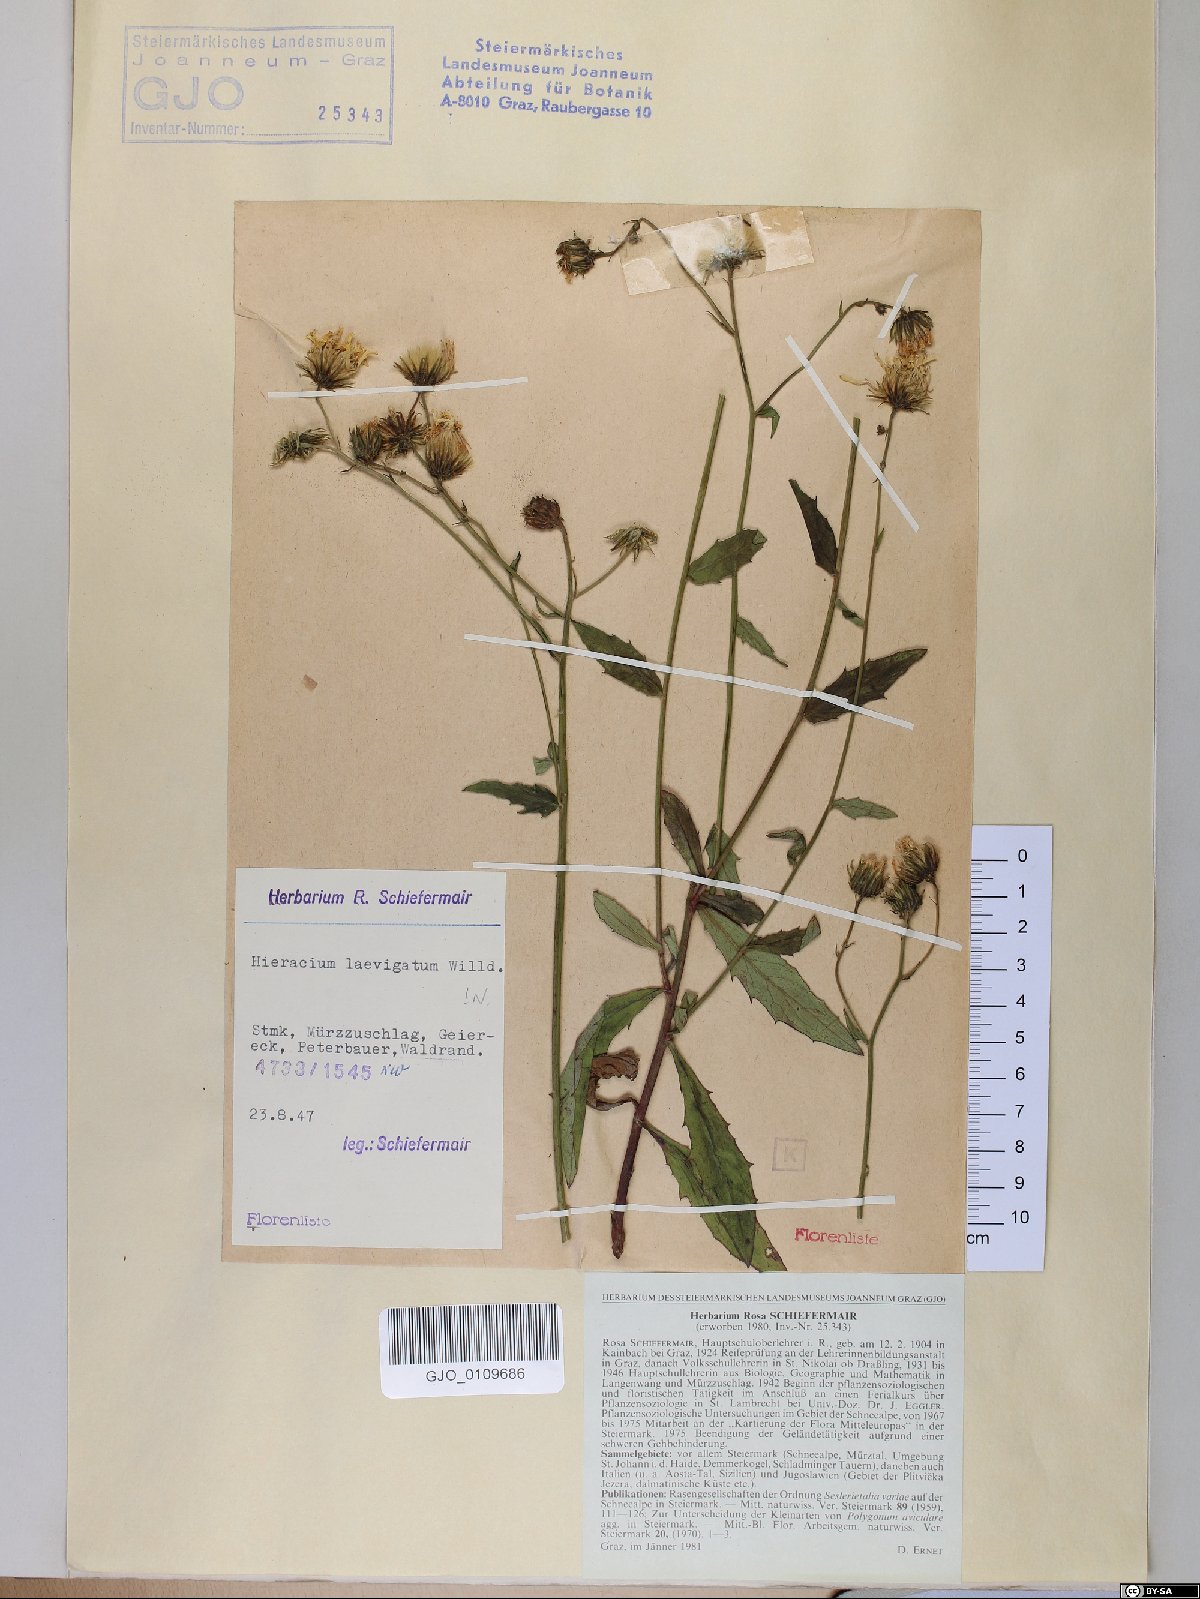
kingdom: Plantae
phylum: Tracheophyta
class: Magnoliopsida
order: Asterales
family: Asteraceae
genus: Hieracium
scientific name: Hieracium laevigatum
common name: Smooth hawkweed
